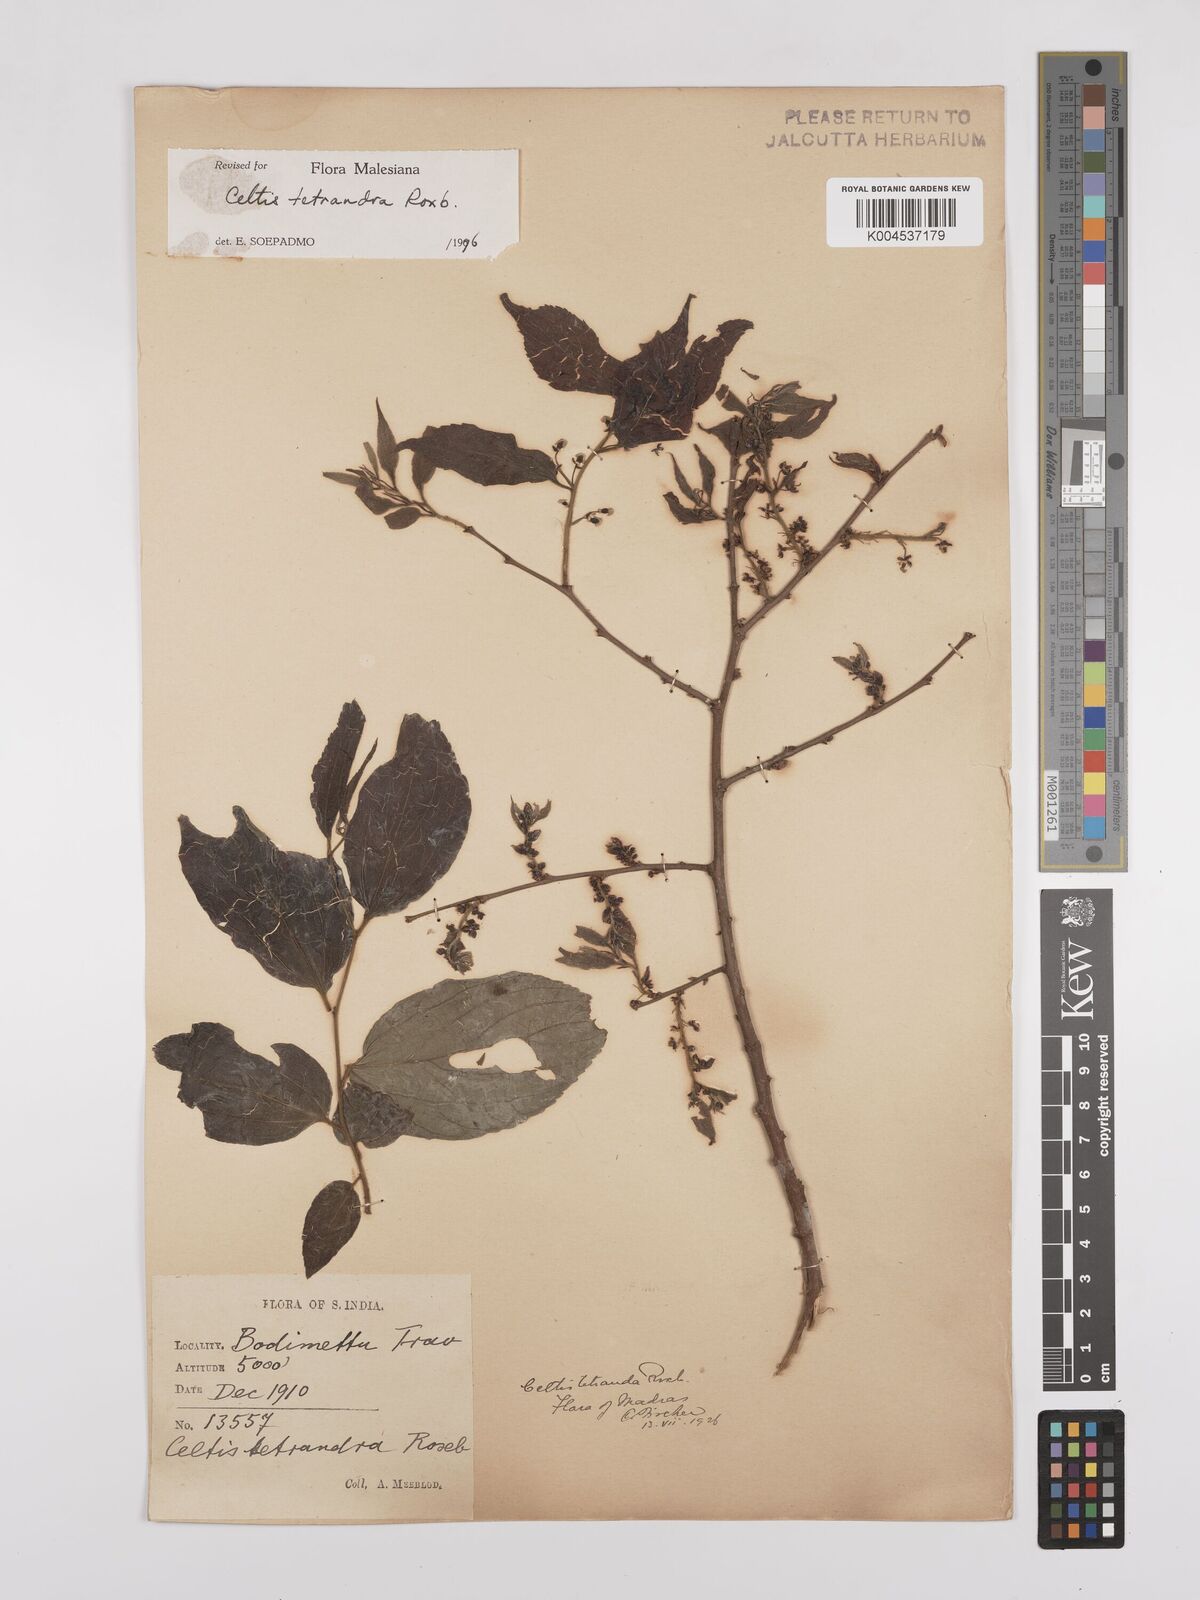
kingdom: Plantae
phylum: Tracheophyta
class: Magnoliopsida
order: Rosales
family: Cannabaceae
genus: Celtis
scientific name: Celtis tetrandra
